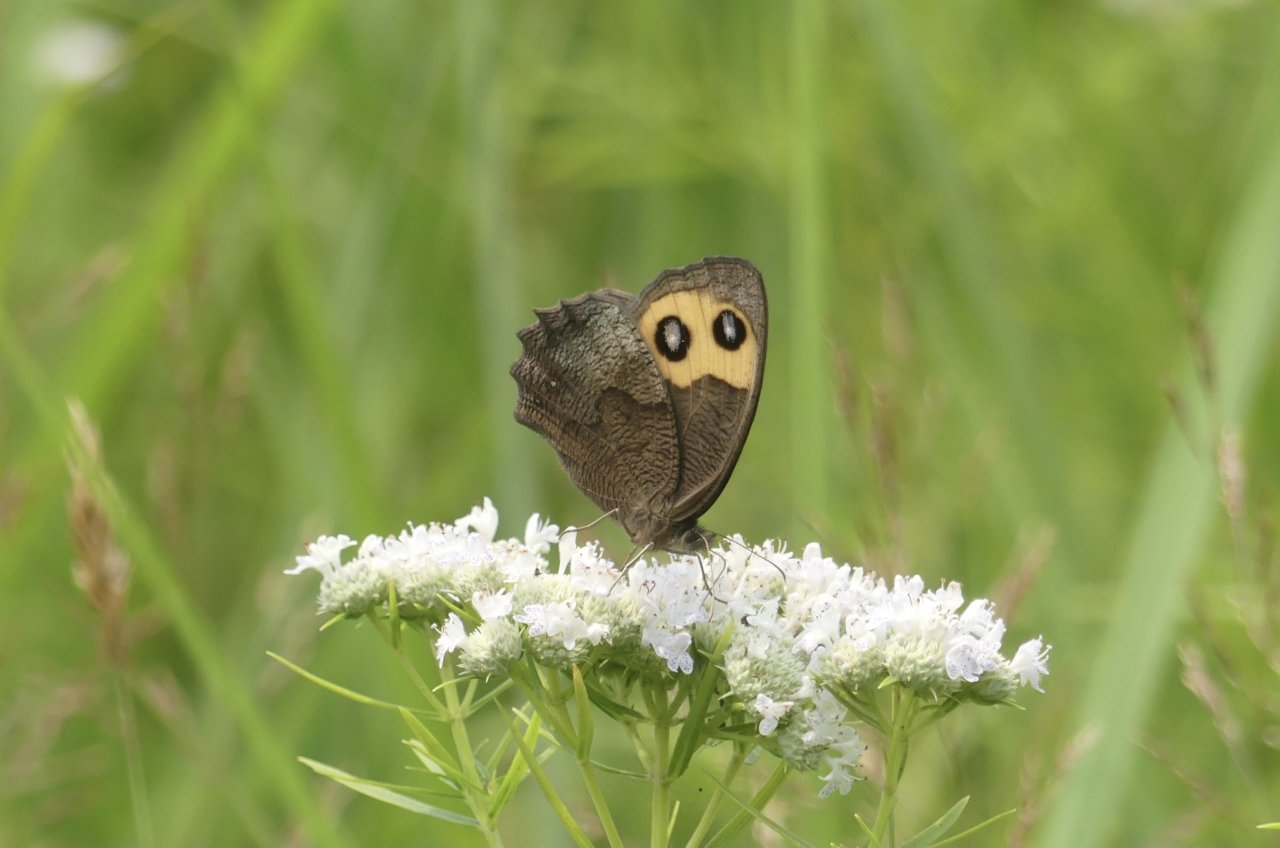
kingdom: Animalia
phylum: Arthropoda
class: Insecta
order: Lepidoptera
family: Nymphalidae
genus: Cercyonis
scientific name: Cercyonis pegala
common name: Common Wood-Nymph
